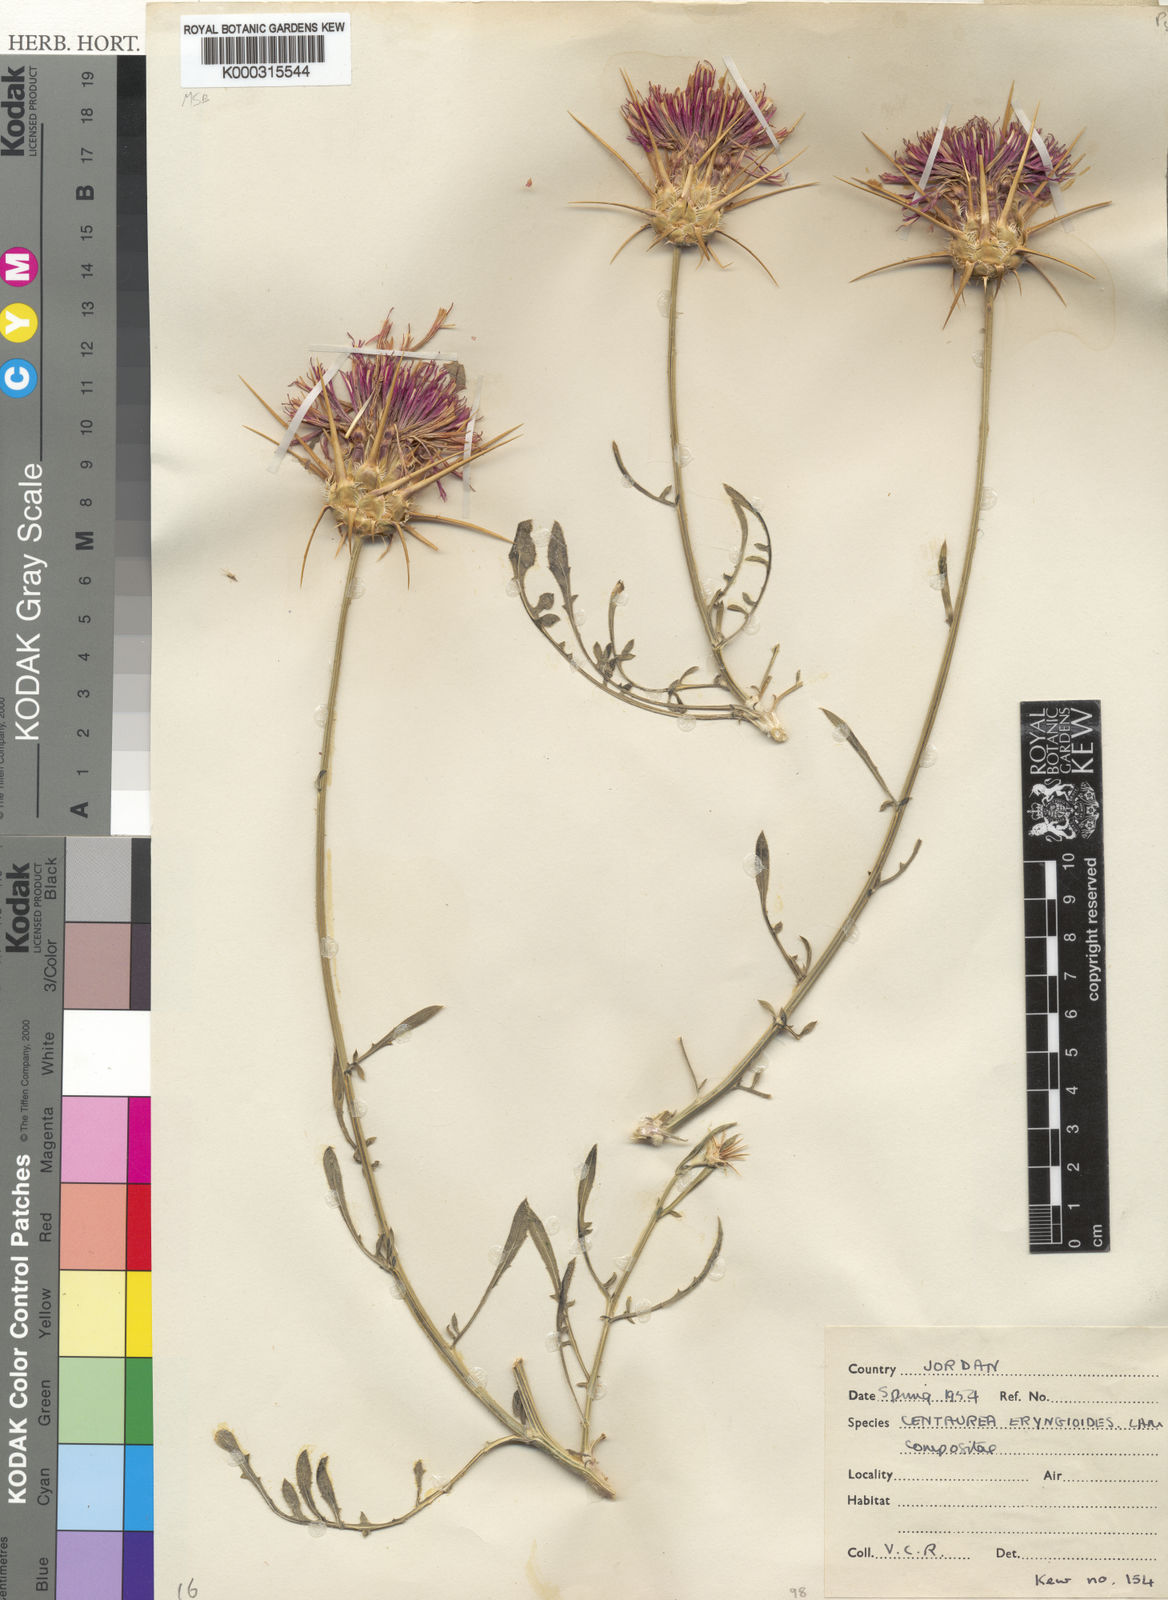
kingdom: Plantae
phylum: Tracheophyta
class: Magnoliopsida
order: Asterales
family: Asteraceae
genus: Centaurea
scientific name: Centaurea eryngioides
